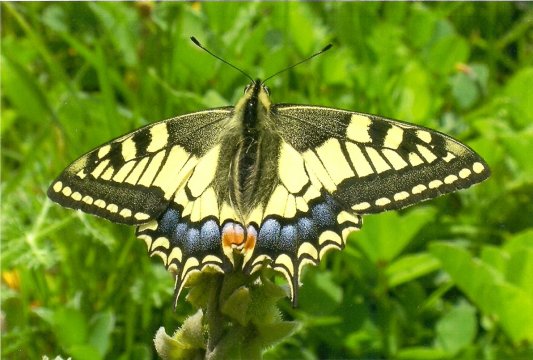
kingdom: Animalia
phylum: Arthropoda
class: Insecta
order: Lepidoptera
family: Papilionidae
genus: Papilio
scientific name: Papilio machaon
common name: Old World Swallowtail
